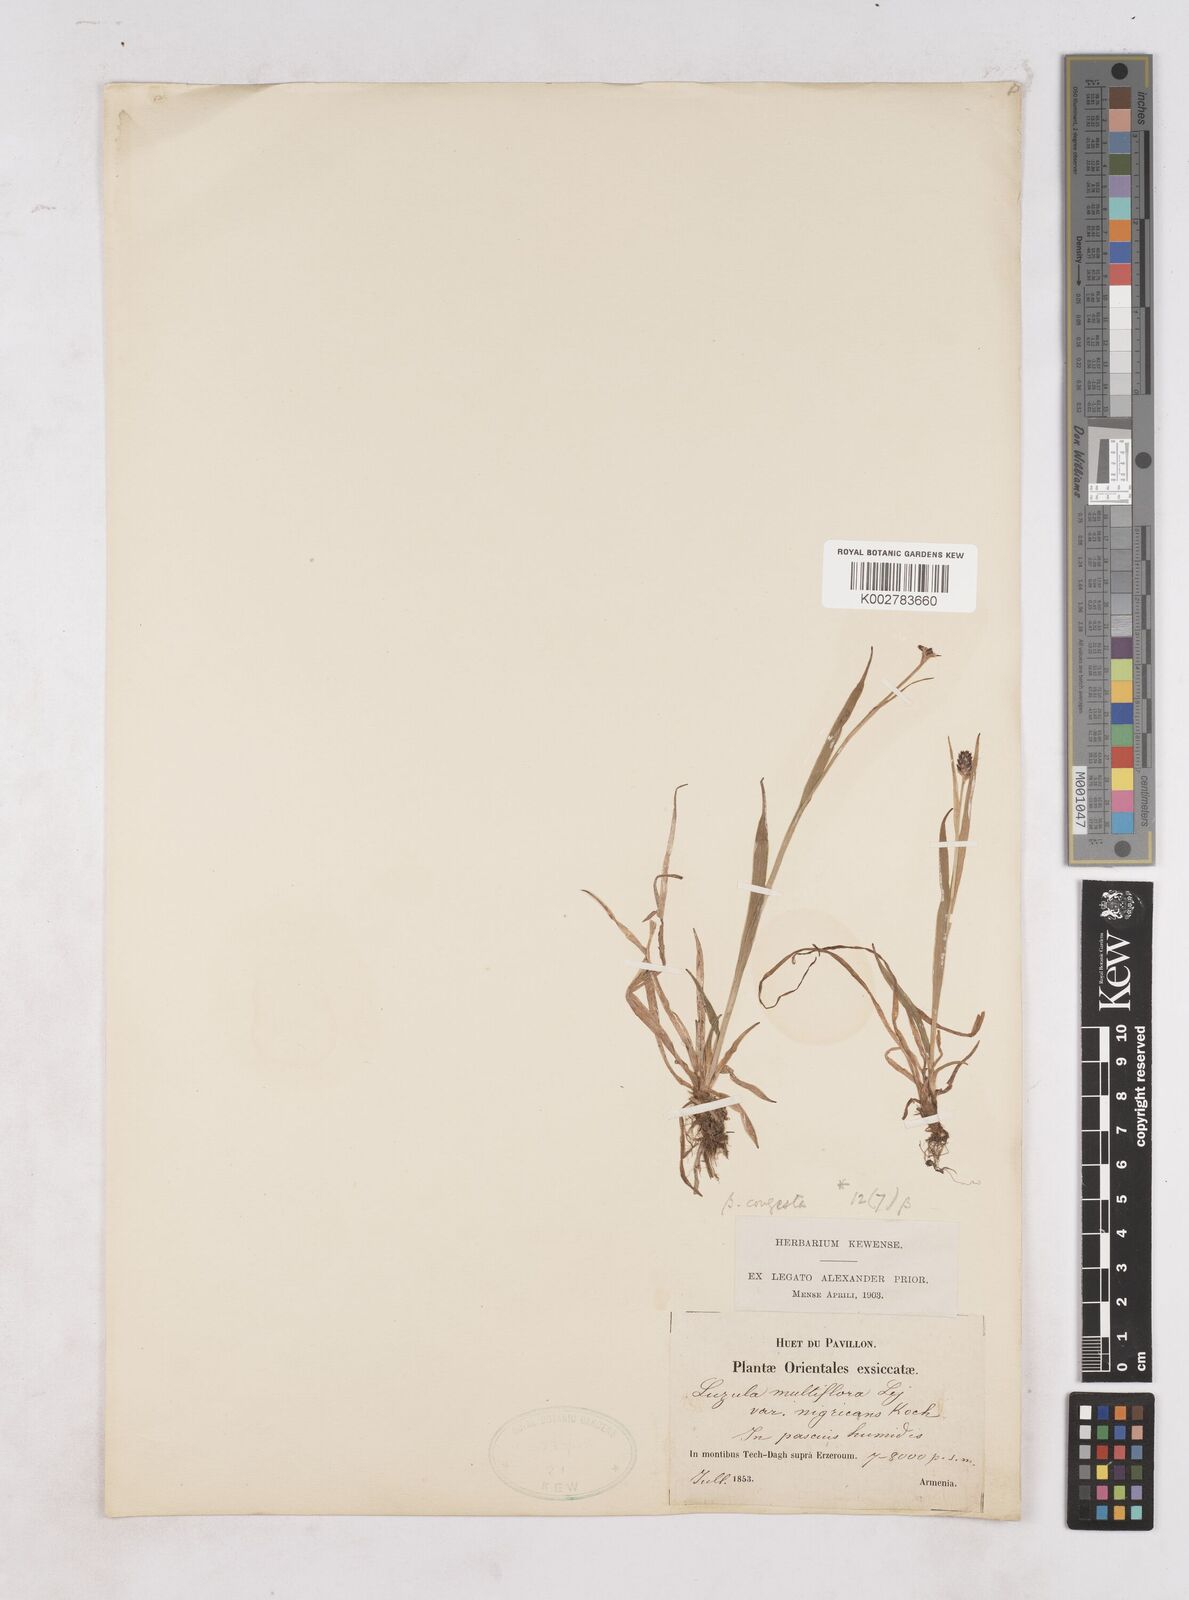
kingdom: Plantae
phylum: Tracheophyta
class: Liliopsida
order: Poales
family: Juncaceae
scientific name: Juncaceae
